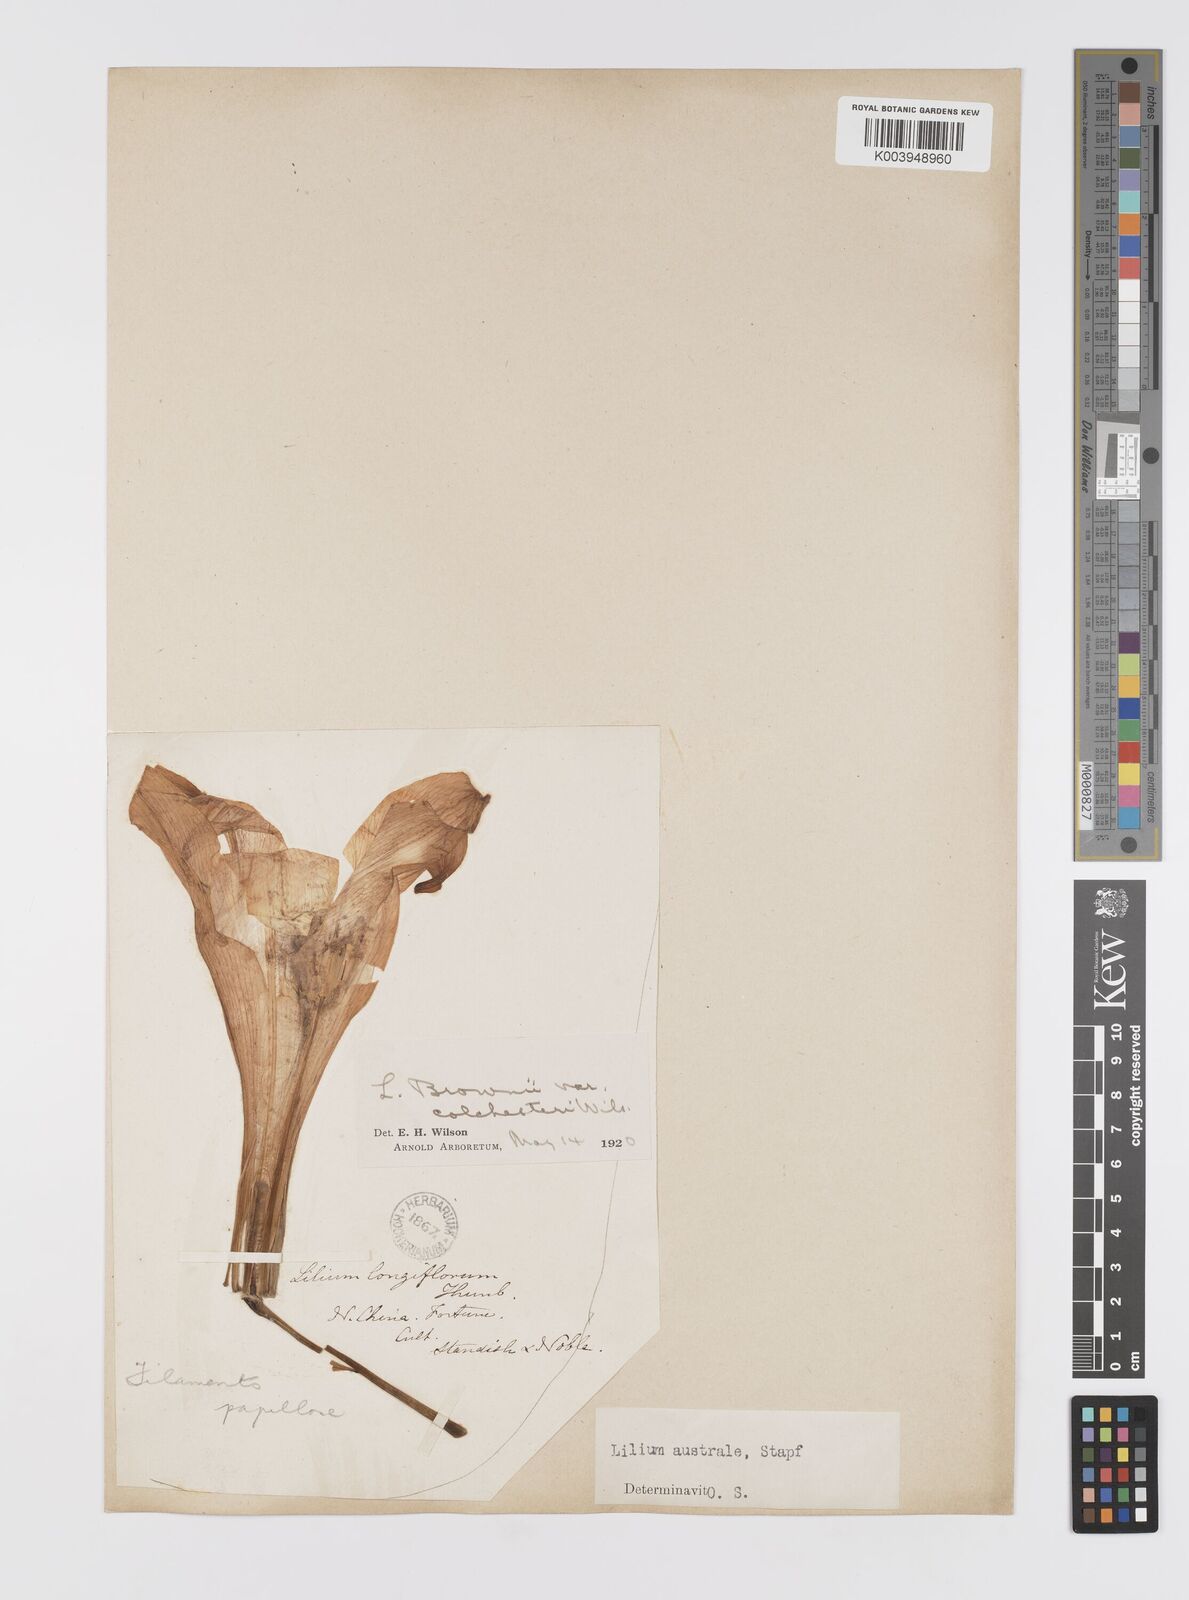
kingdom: Plantae
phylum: Tracheophyta
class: Liliopsida
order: Liliales
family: Liliaceae
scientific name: Liliaceae
